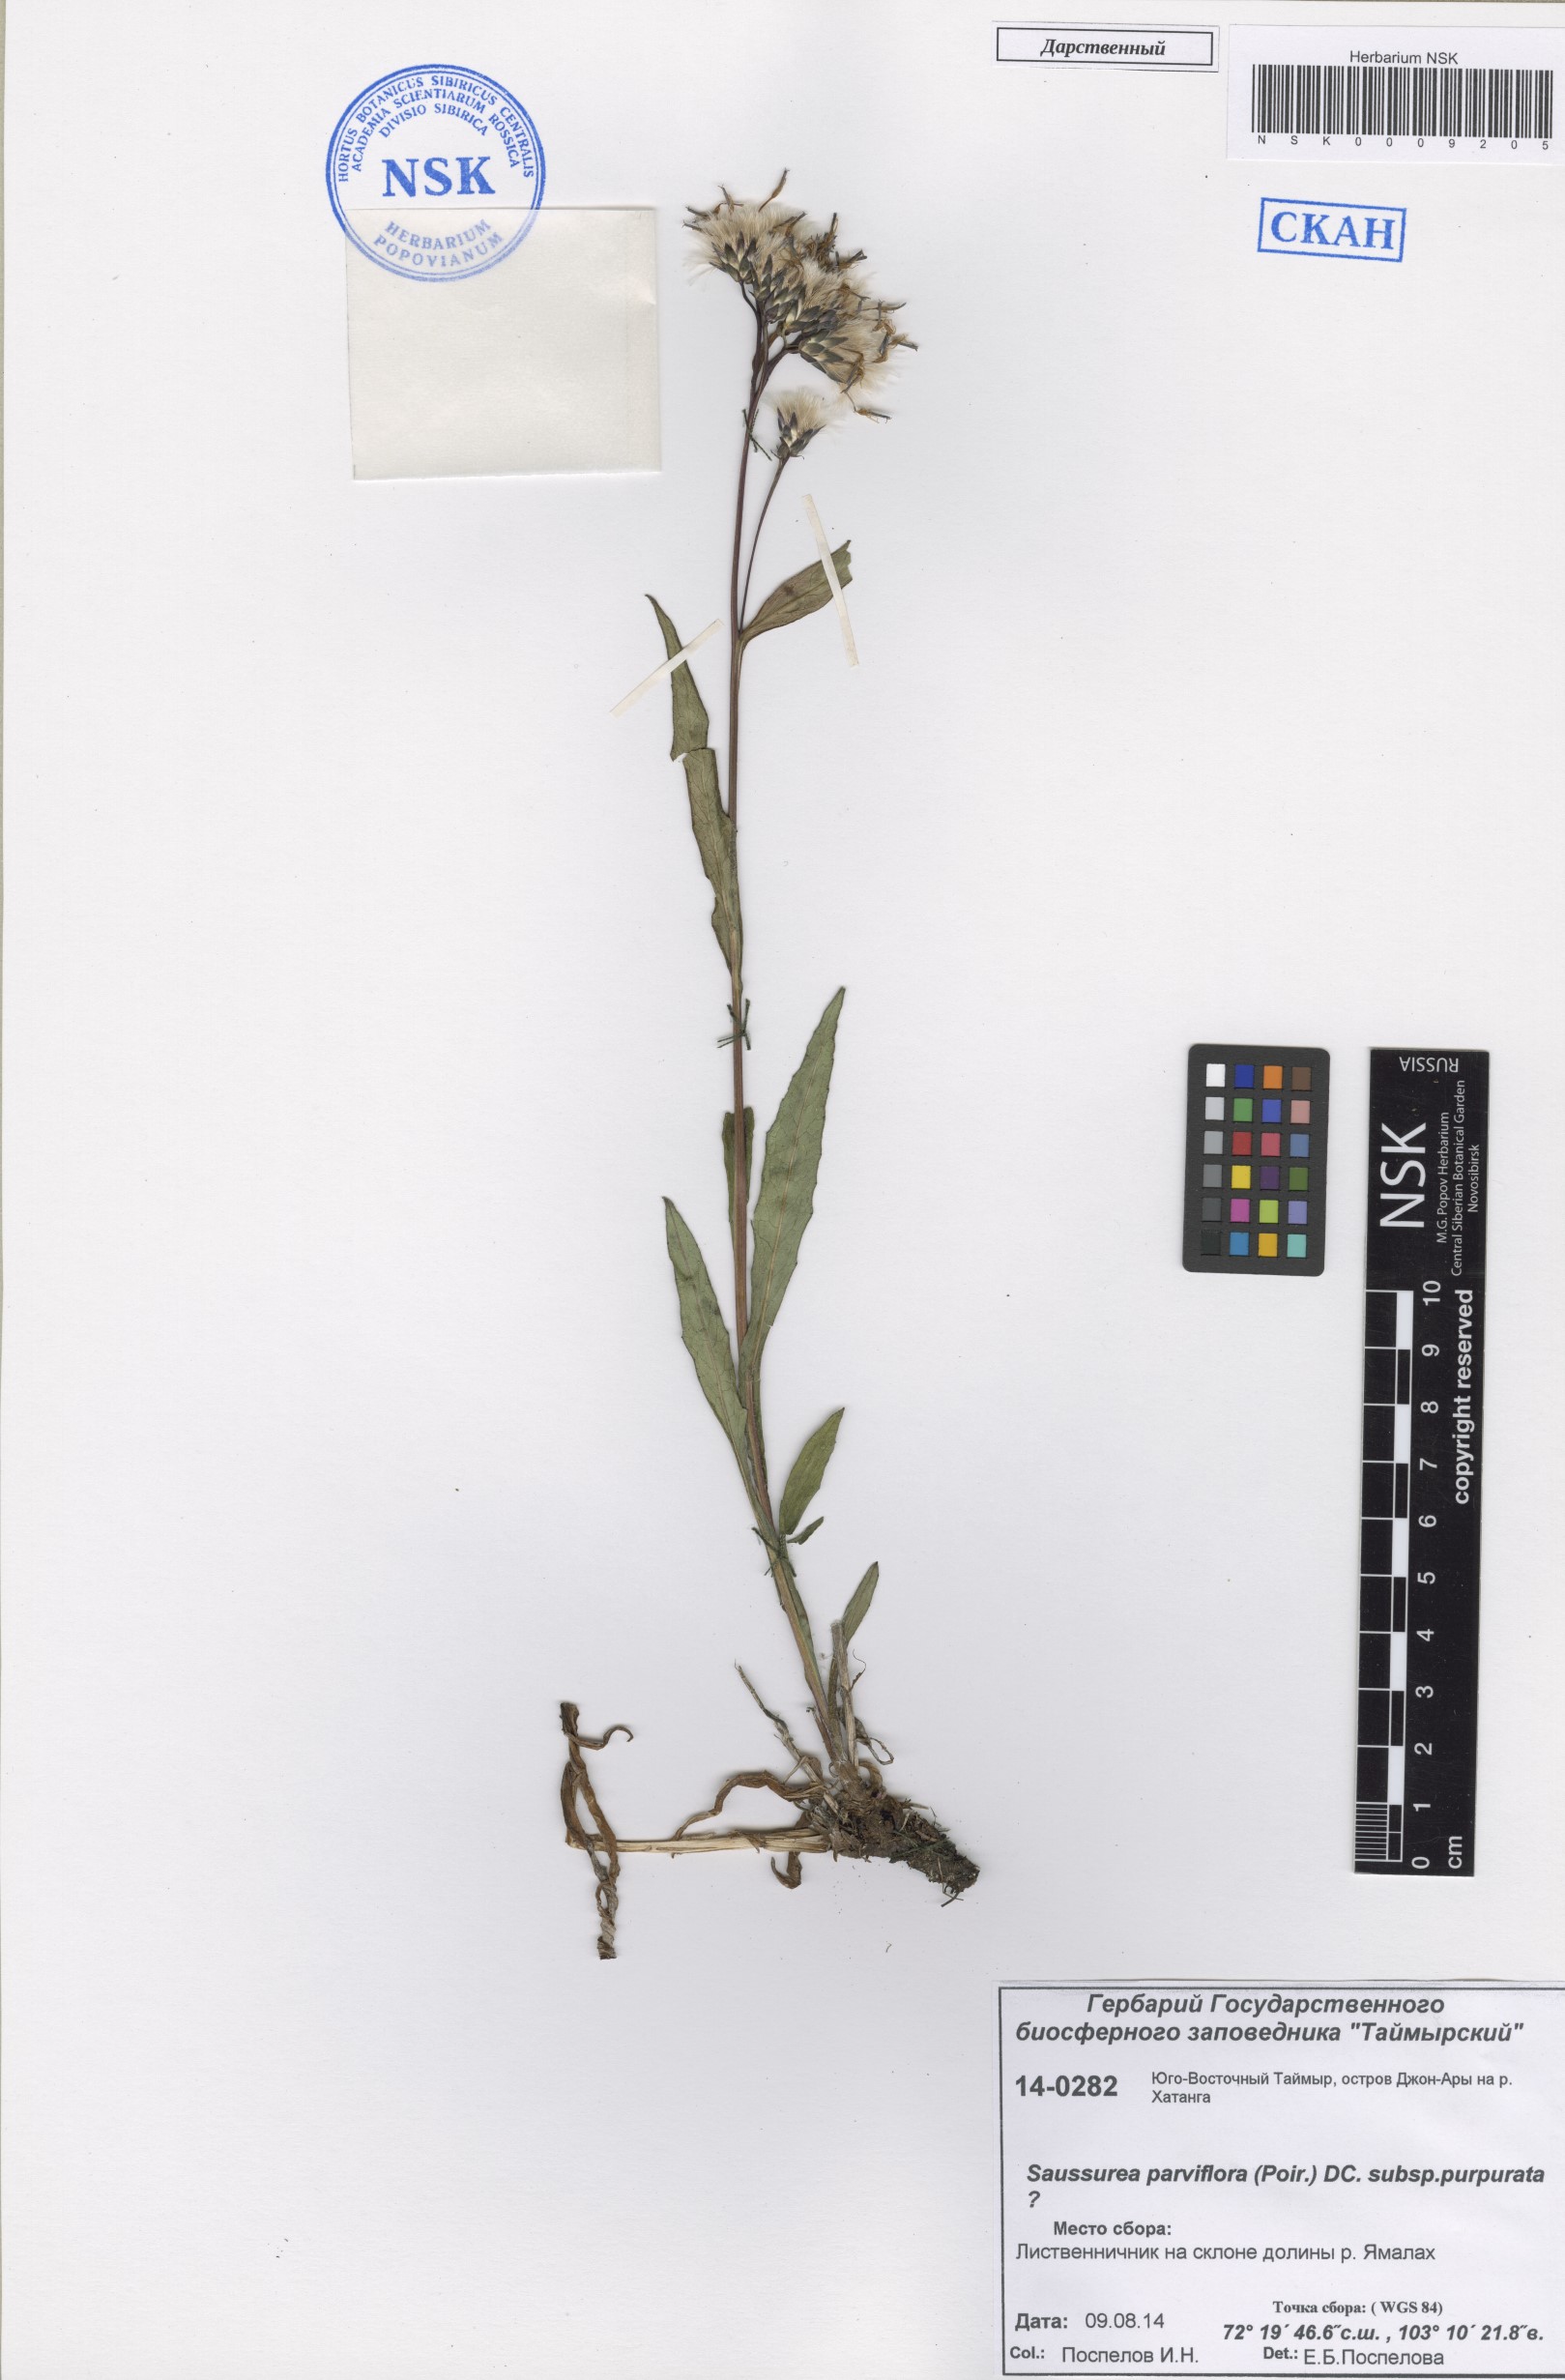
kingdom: Plantae
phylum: Tracheophyta
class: Magnoliopsida
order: Asterales
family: Asteraceae
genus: Saussurea
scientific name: Saussurea parviflora
